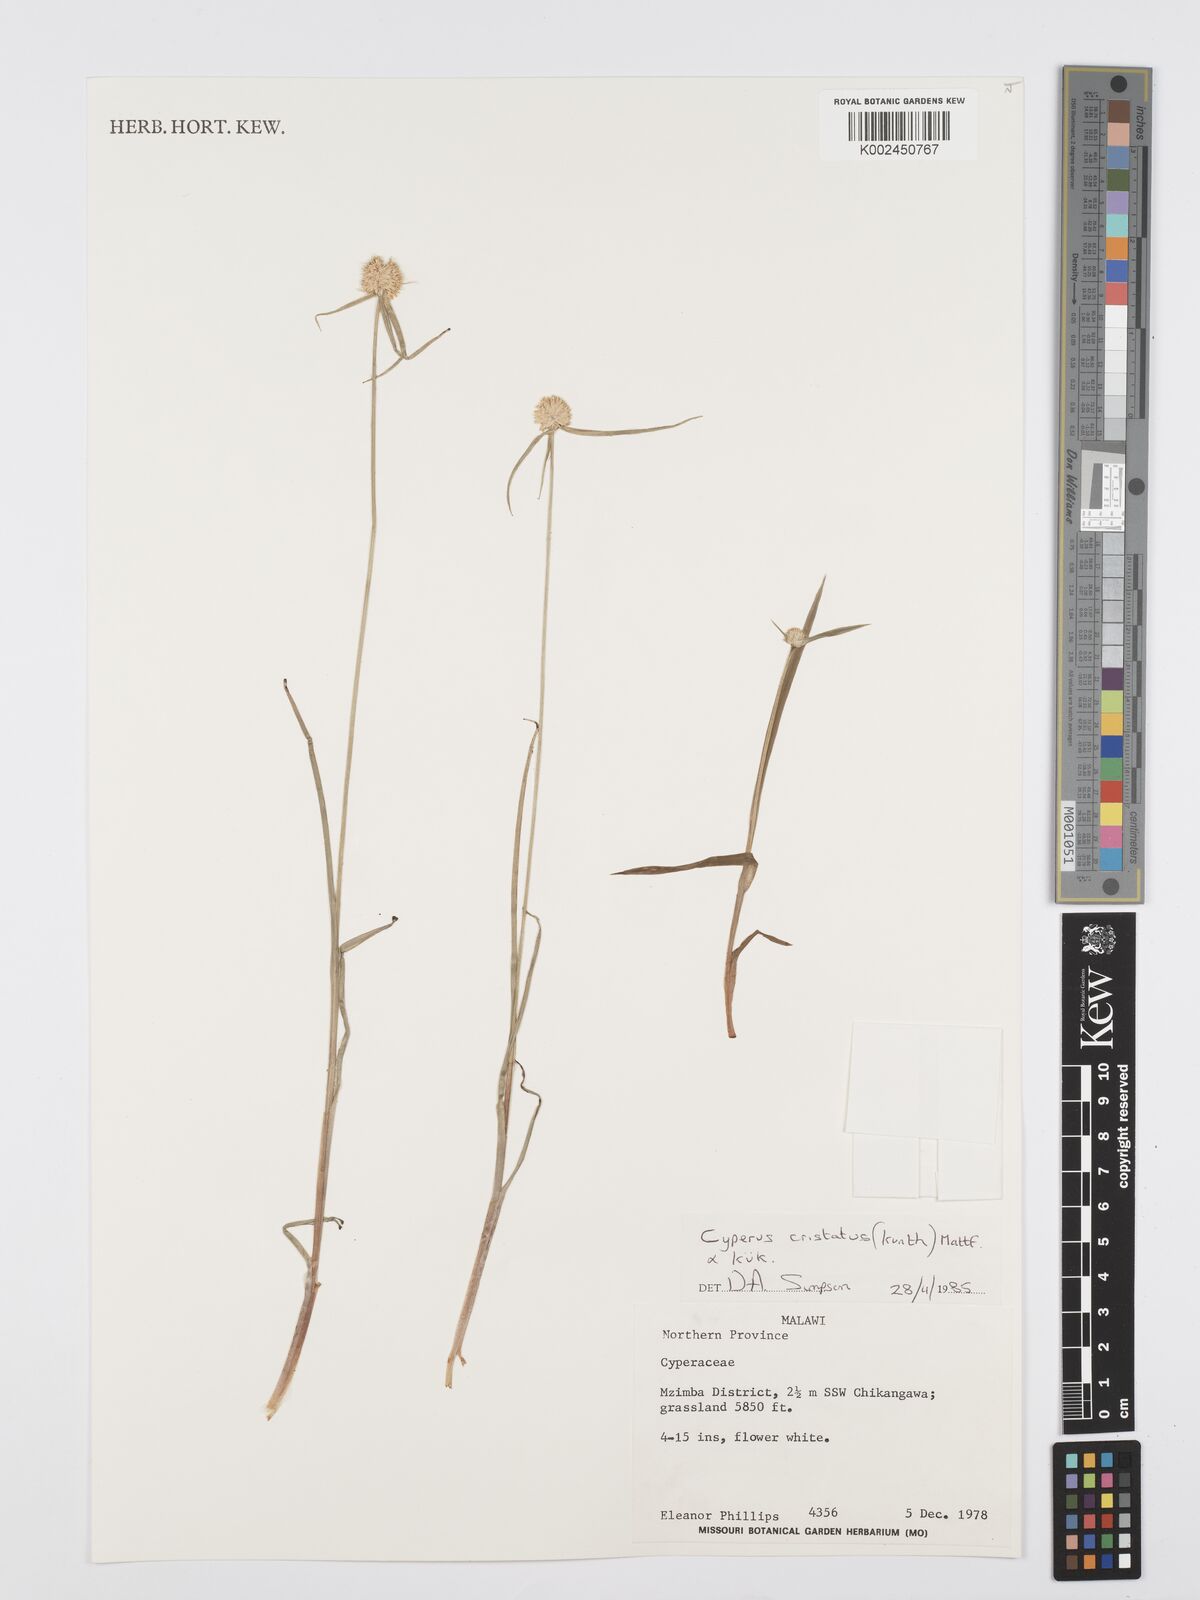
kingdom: Plantae
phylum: Tracheophyta
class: Liliopsida
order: Poales
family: Cyperaceae
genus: Cyperus
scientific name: Cyperus rukwanus
